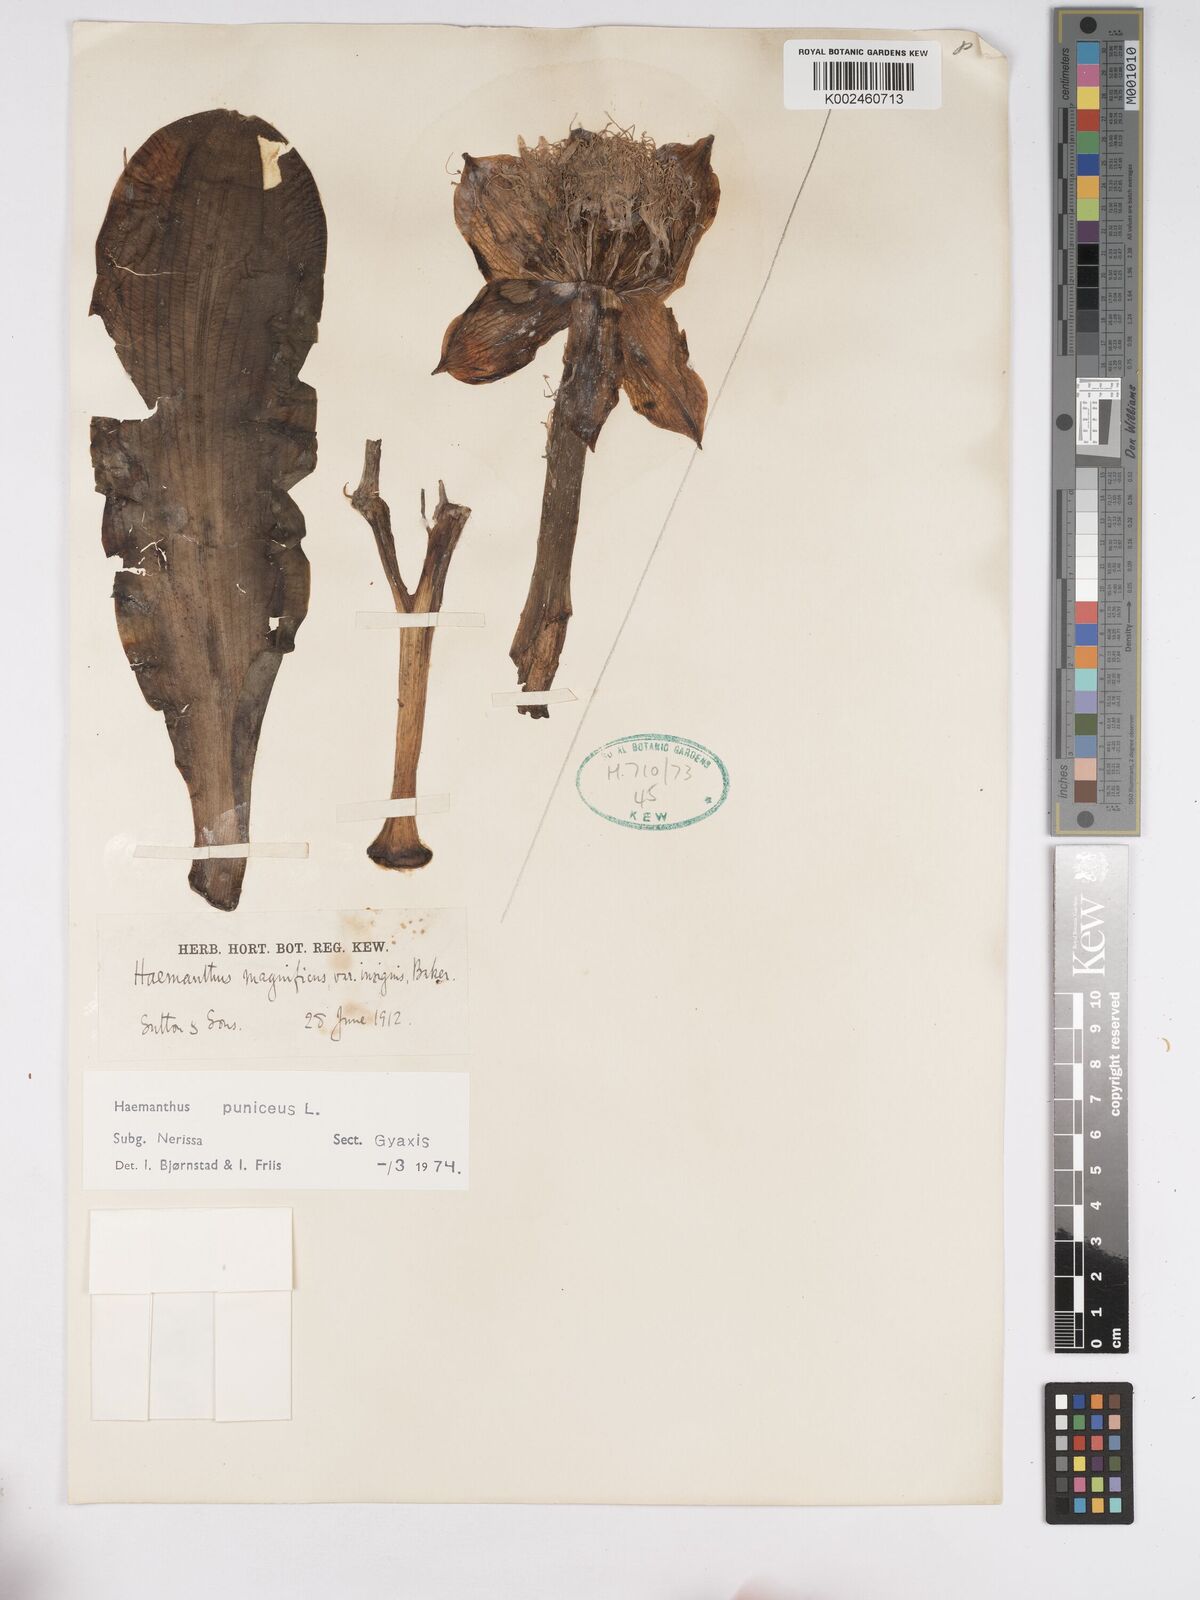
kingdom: Plantae
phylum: Tracheophyta
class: Liliopsida
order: Asparagales
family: Amaryllidaceae
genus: Scadoxus
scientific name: Scadoxus puniceus
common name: Royal-paintbrush
